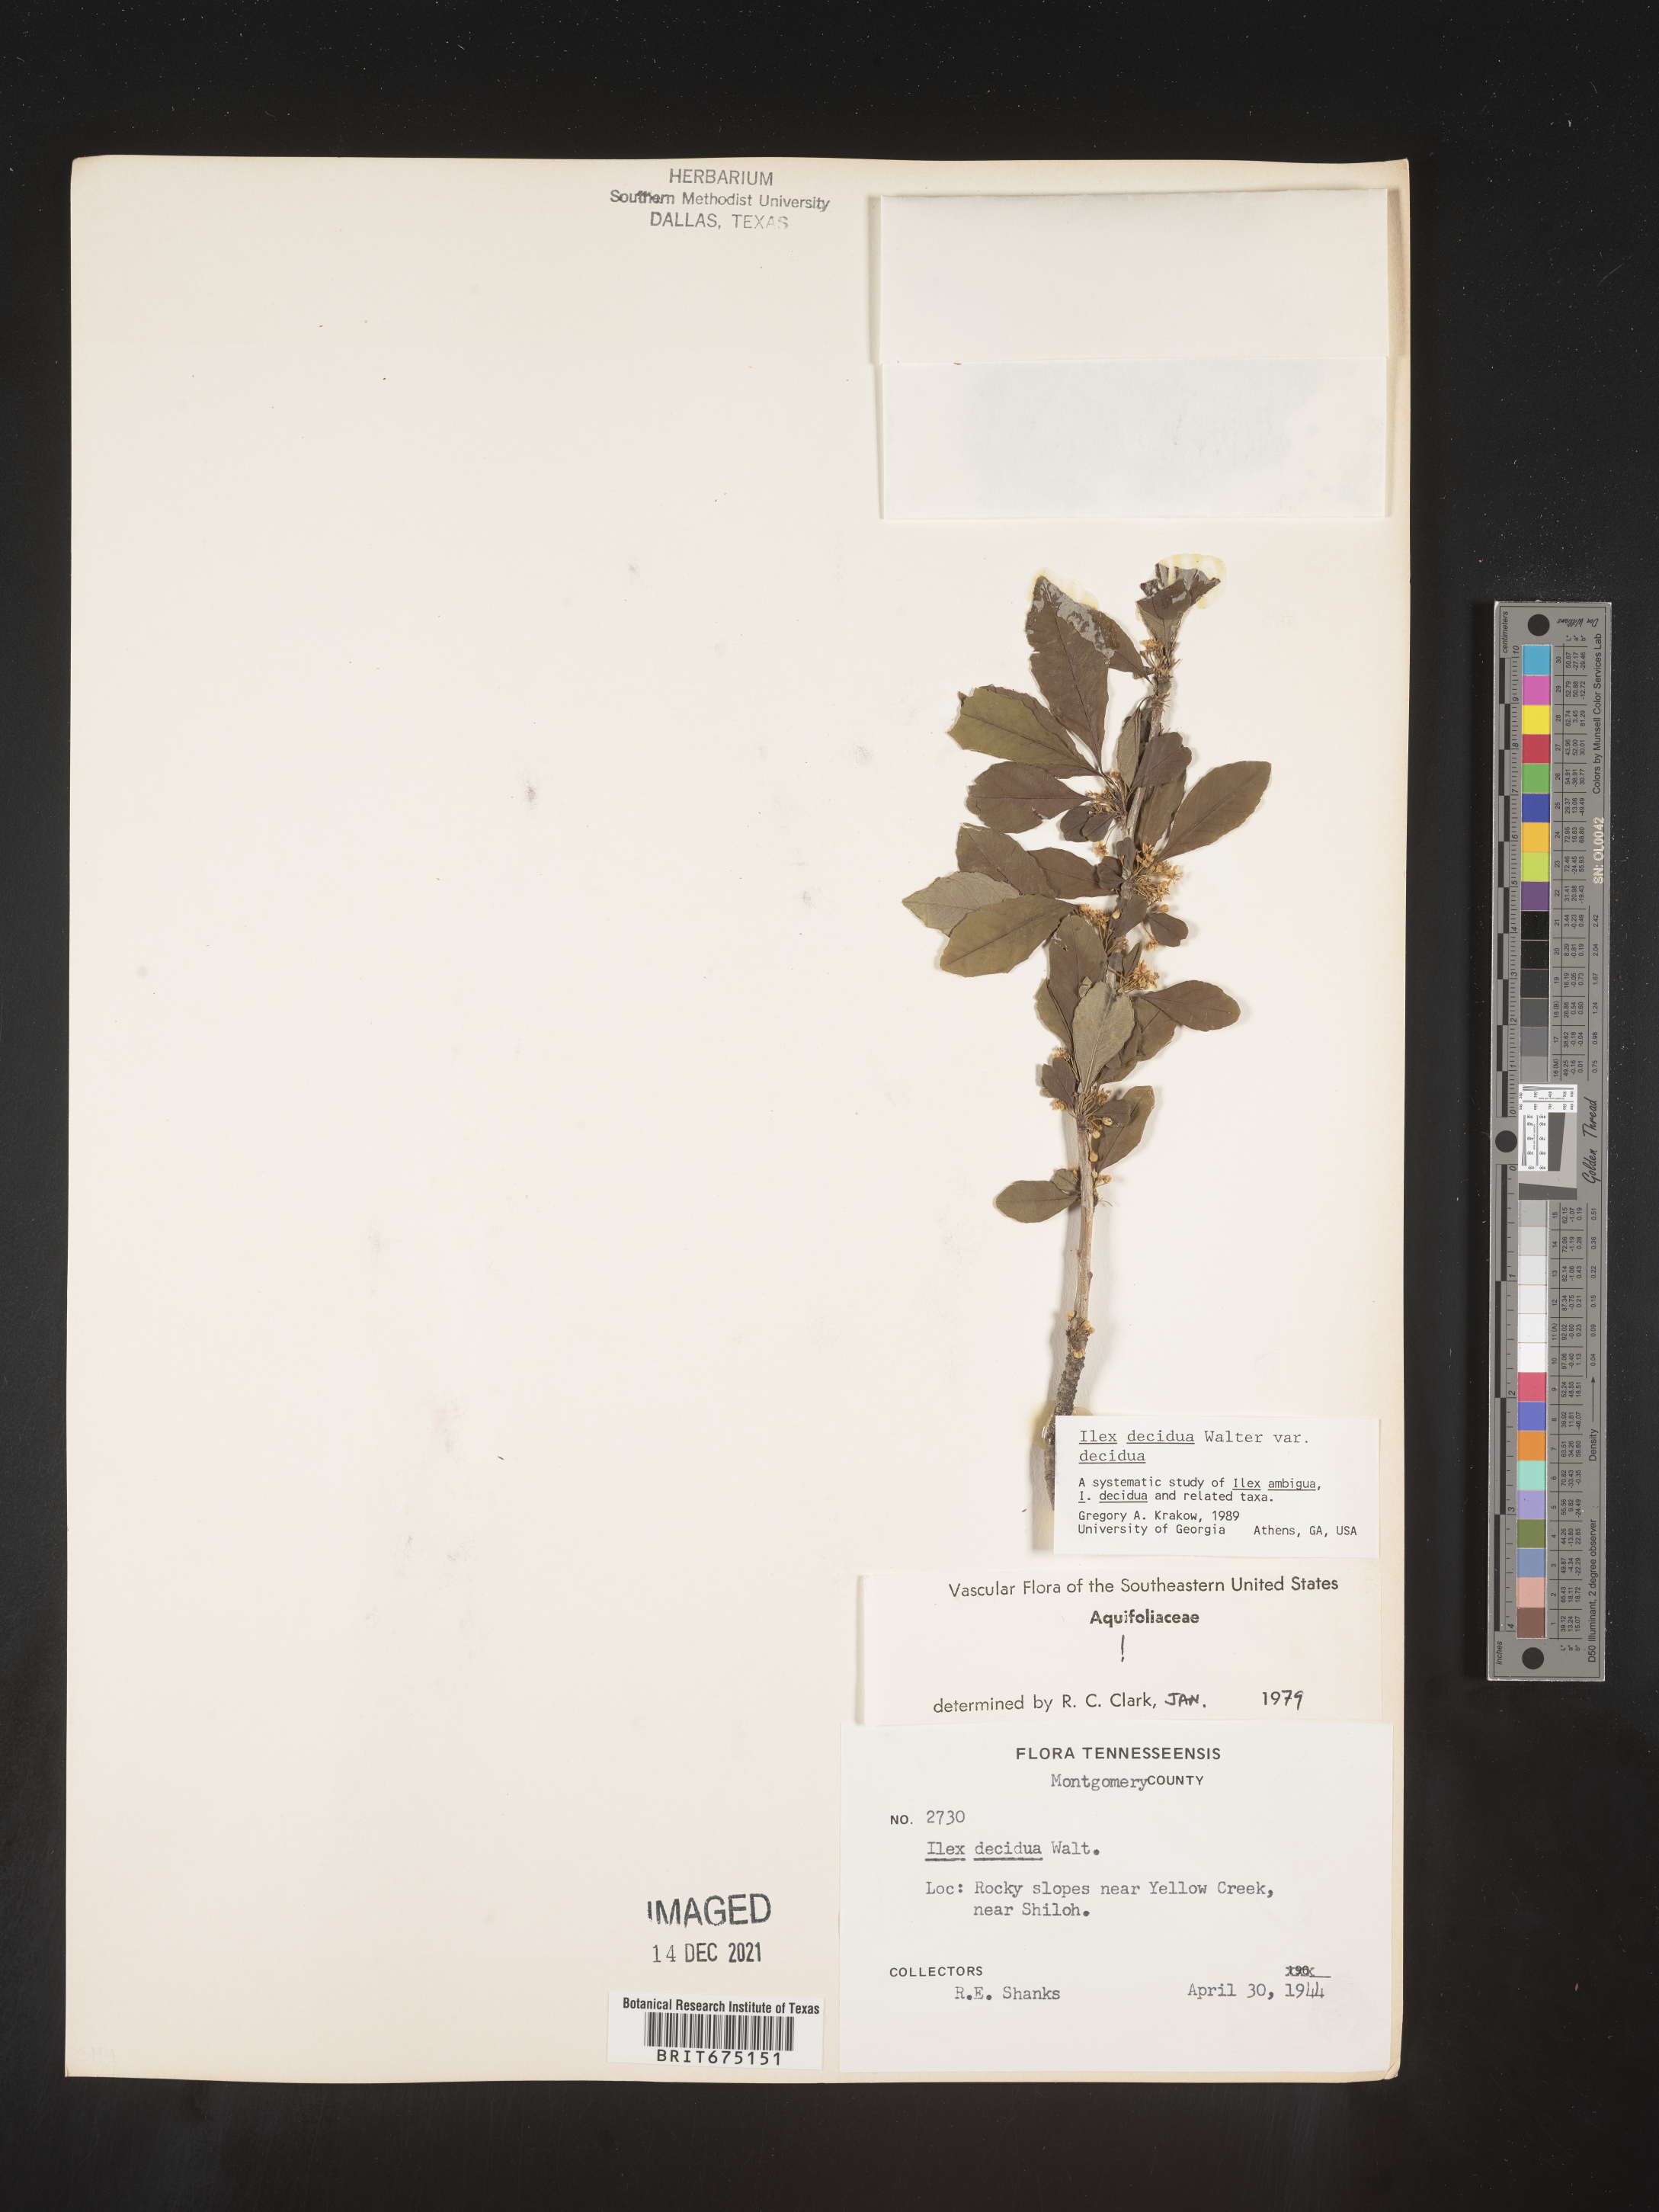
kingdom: Plantae
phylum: Tracheophyta
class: Magnoliopsida
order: Aquifoliales
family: Aquifoliaceae
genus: Ilex
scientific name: Ilex decidua
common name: Possum-haw
